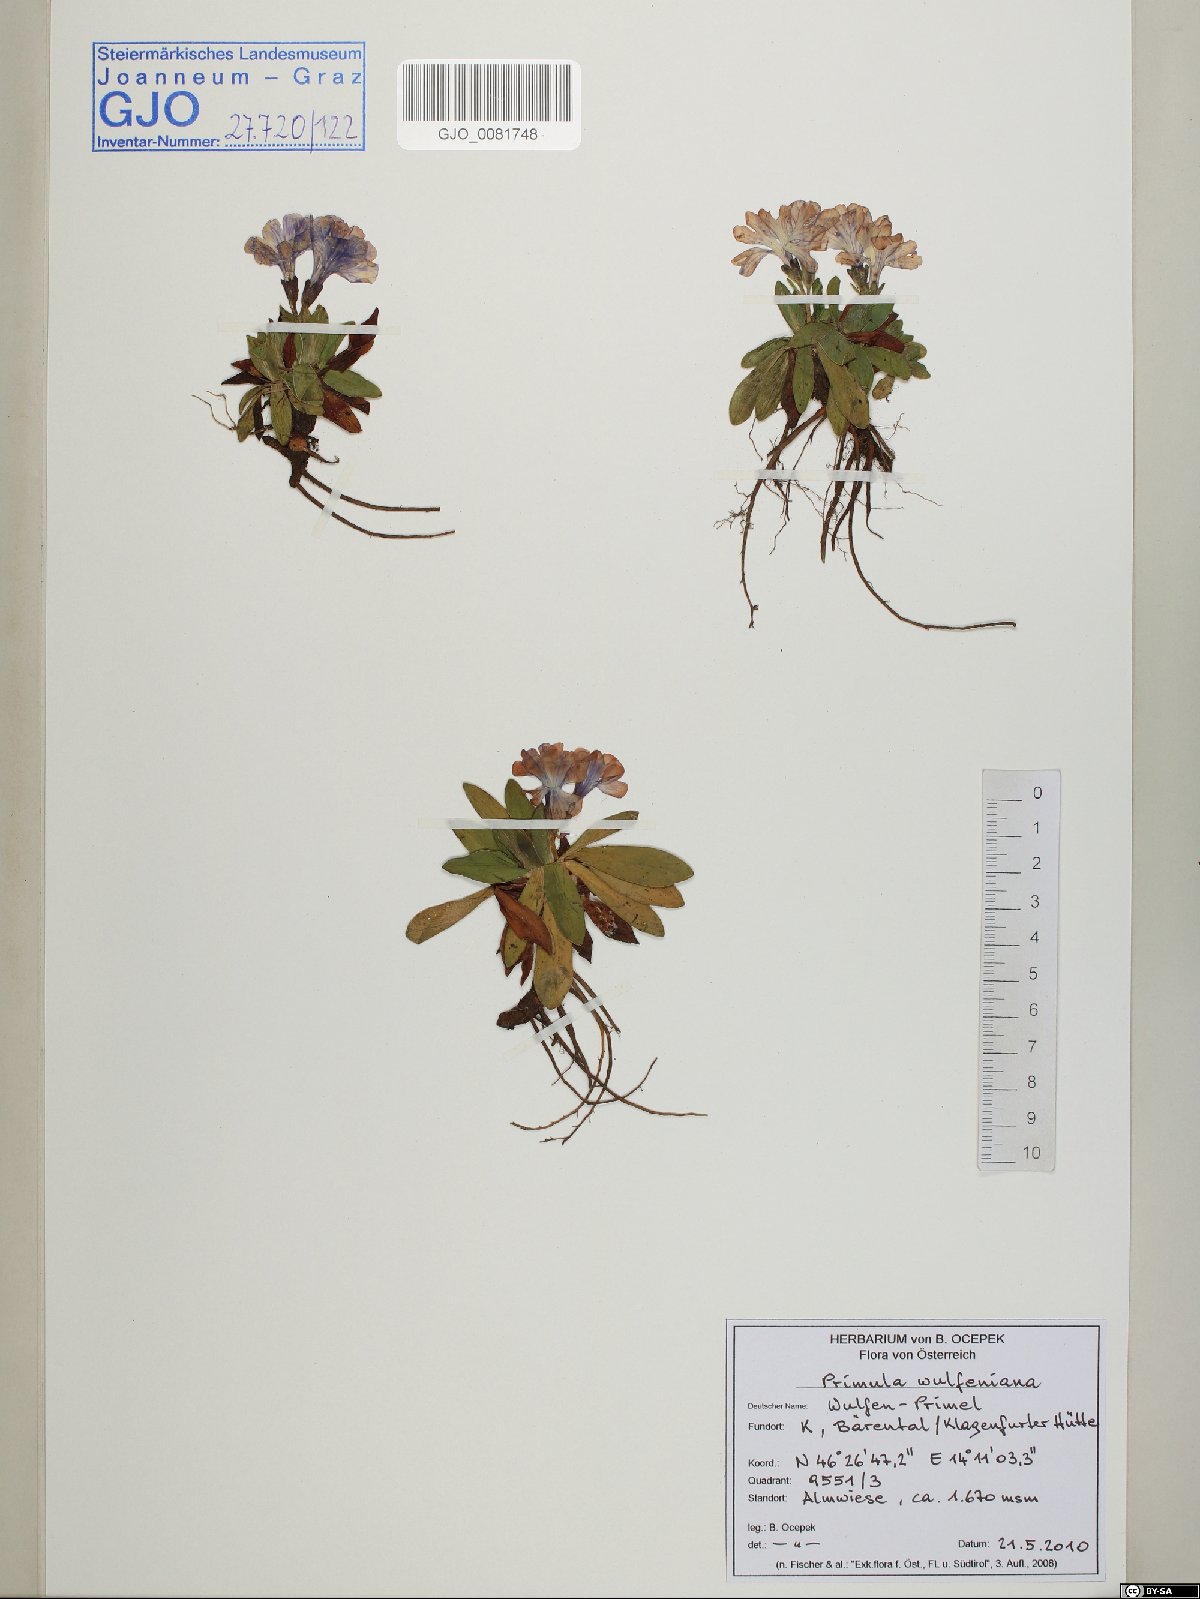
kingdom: Plantae
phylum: Tracheophyta
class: Magnoliopsida
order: Ericales
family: Primulaceae
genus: Primula
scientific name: Primula wulfeniana
